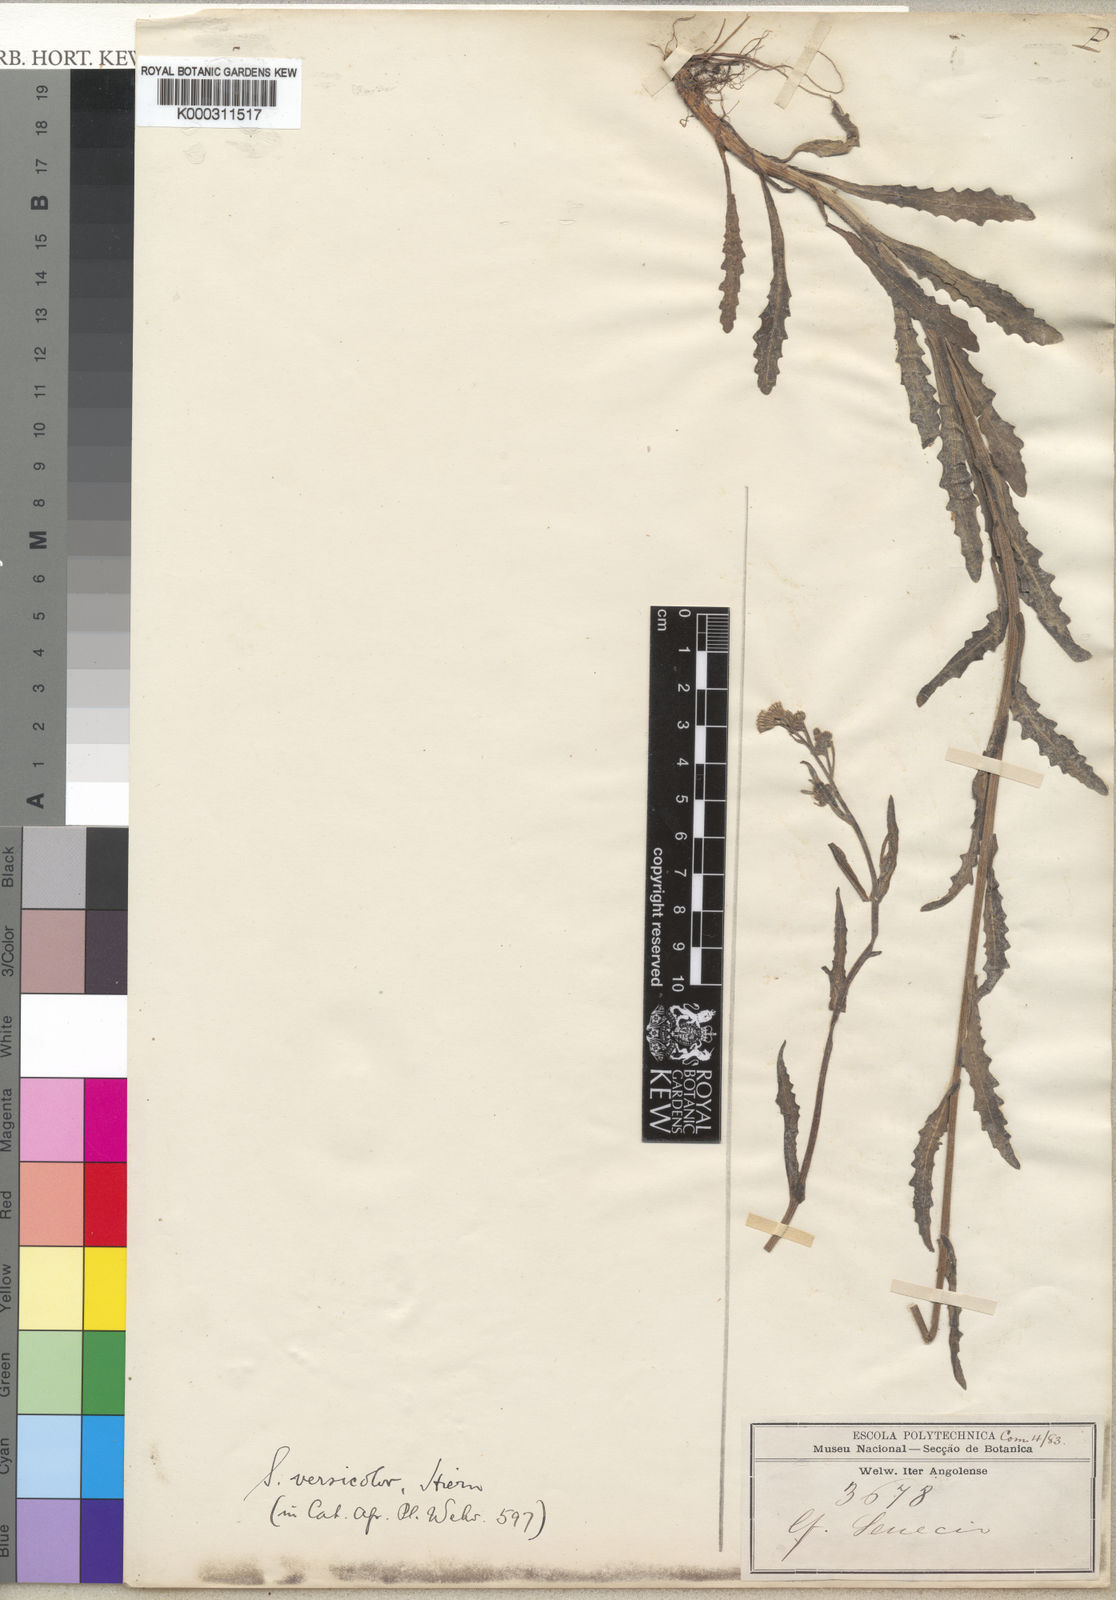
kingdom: Plantae
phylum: Tracheophyta
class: Magnoliopsida
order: Asterales
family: Asteraceae
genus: Senecio
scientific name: Senecio hochstetteri
